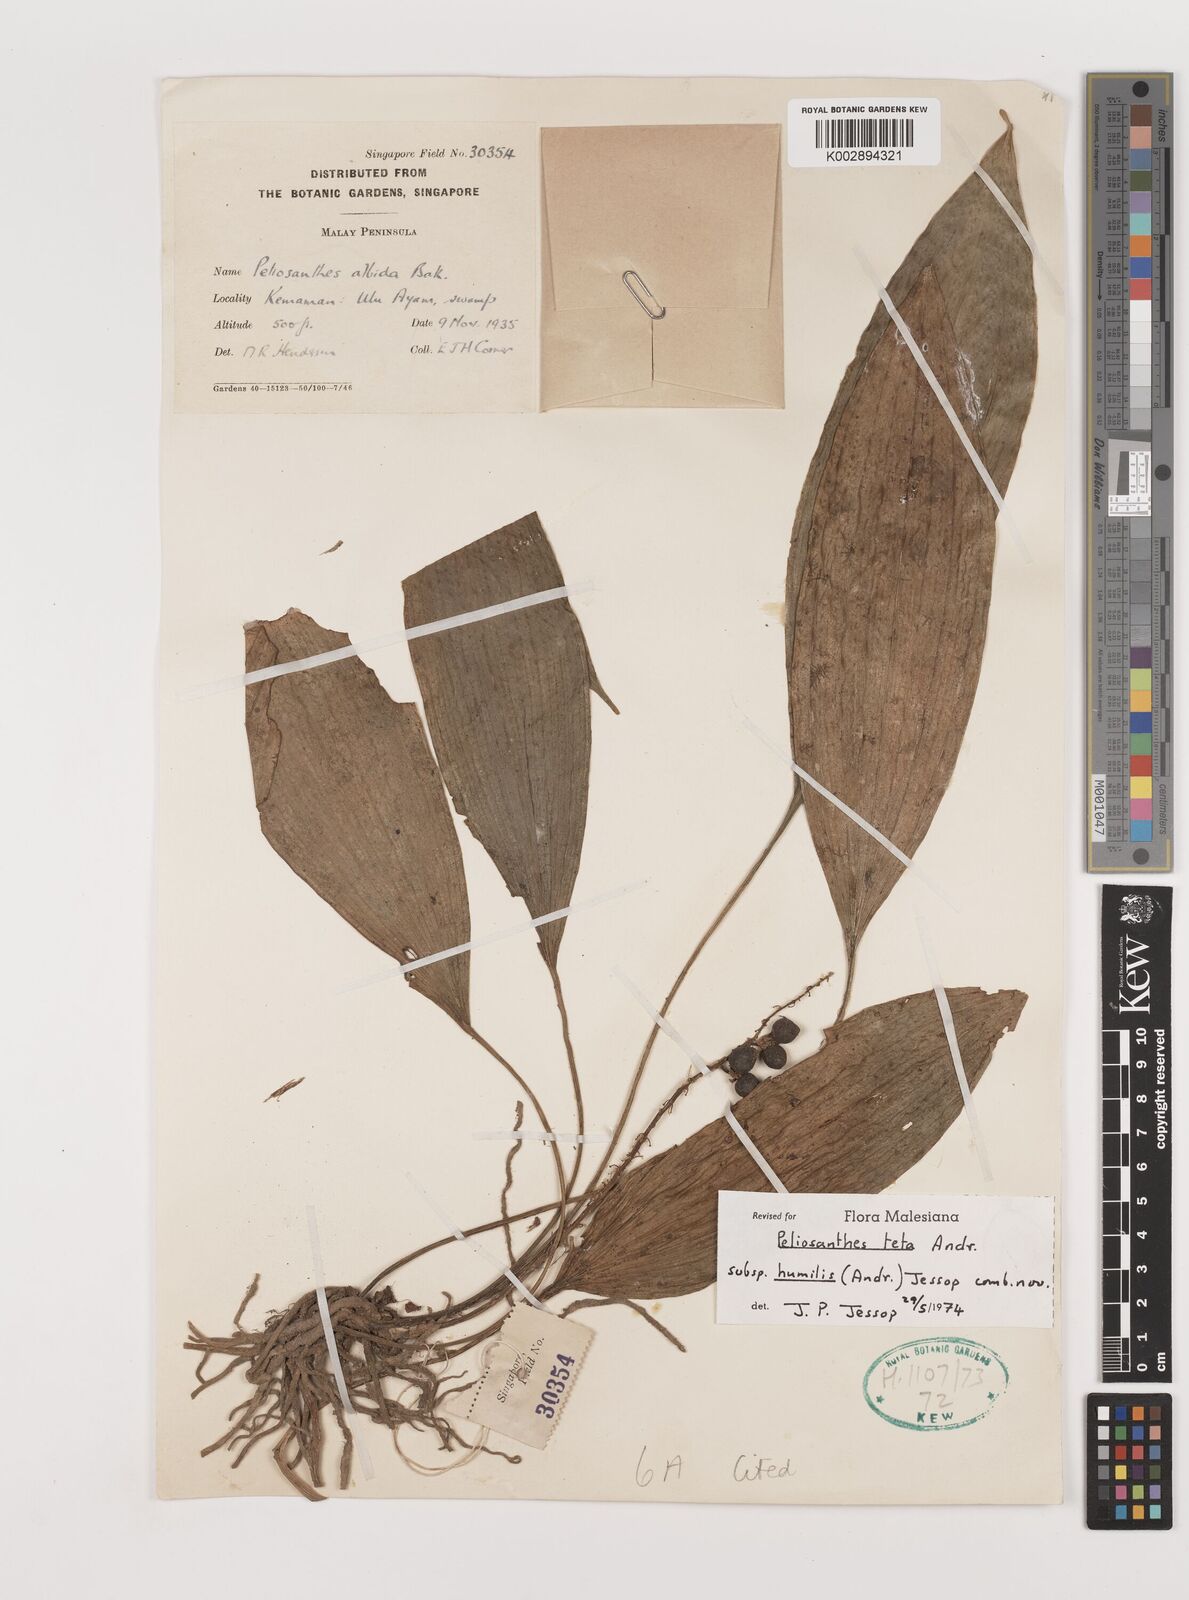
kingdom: Plantae
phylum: Tracheophyta
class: Liliopsida
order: Asparagales
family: Asparagaceae
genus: Peliosanthes
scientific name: Peliosanthes teta
